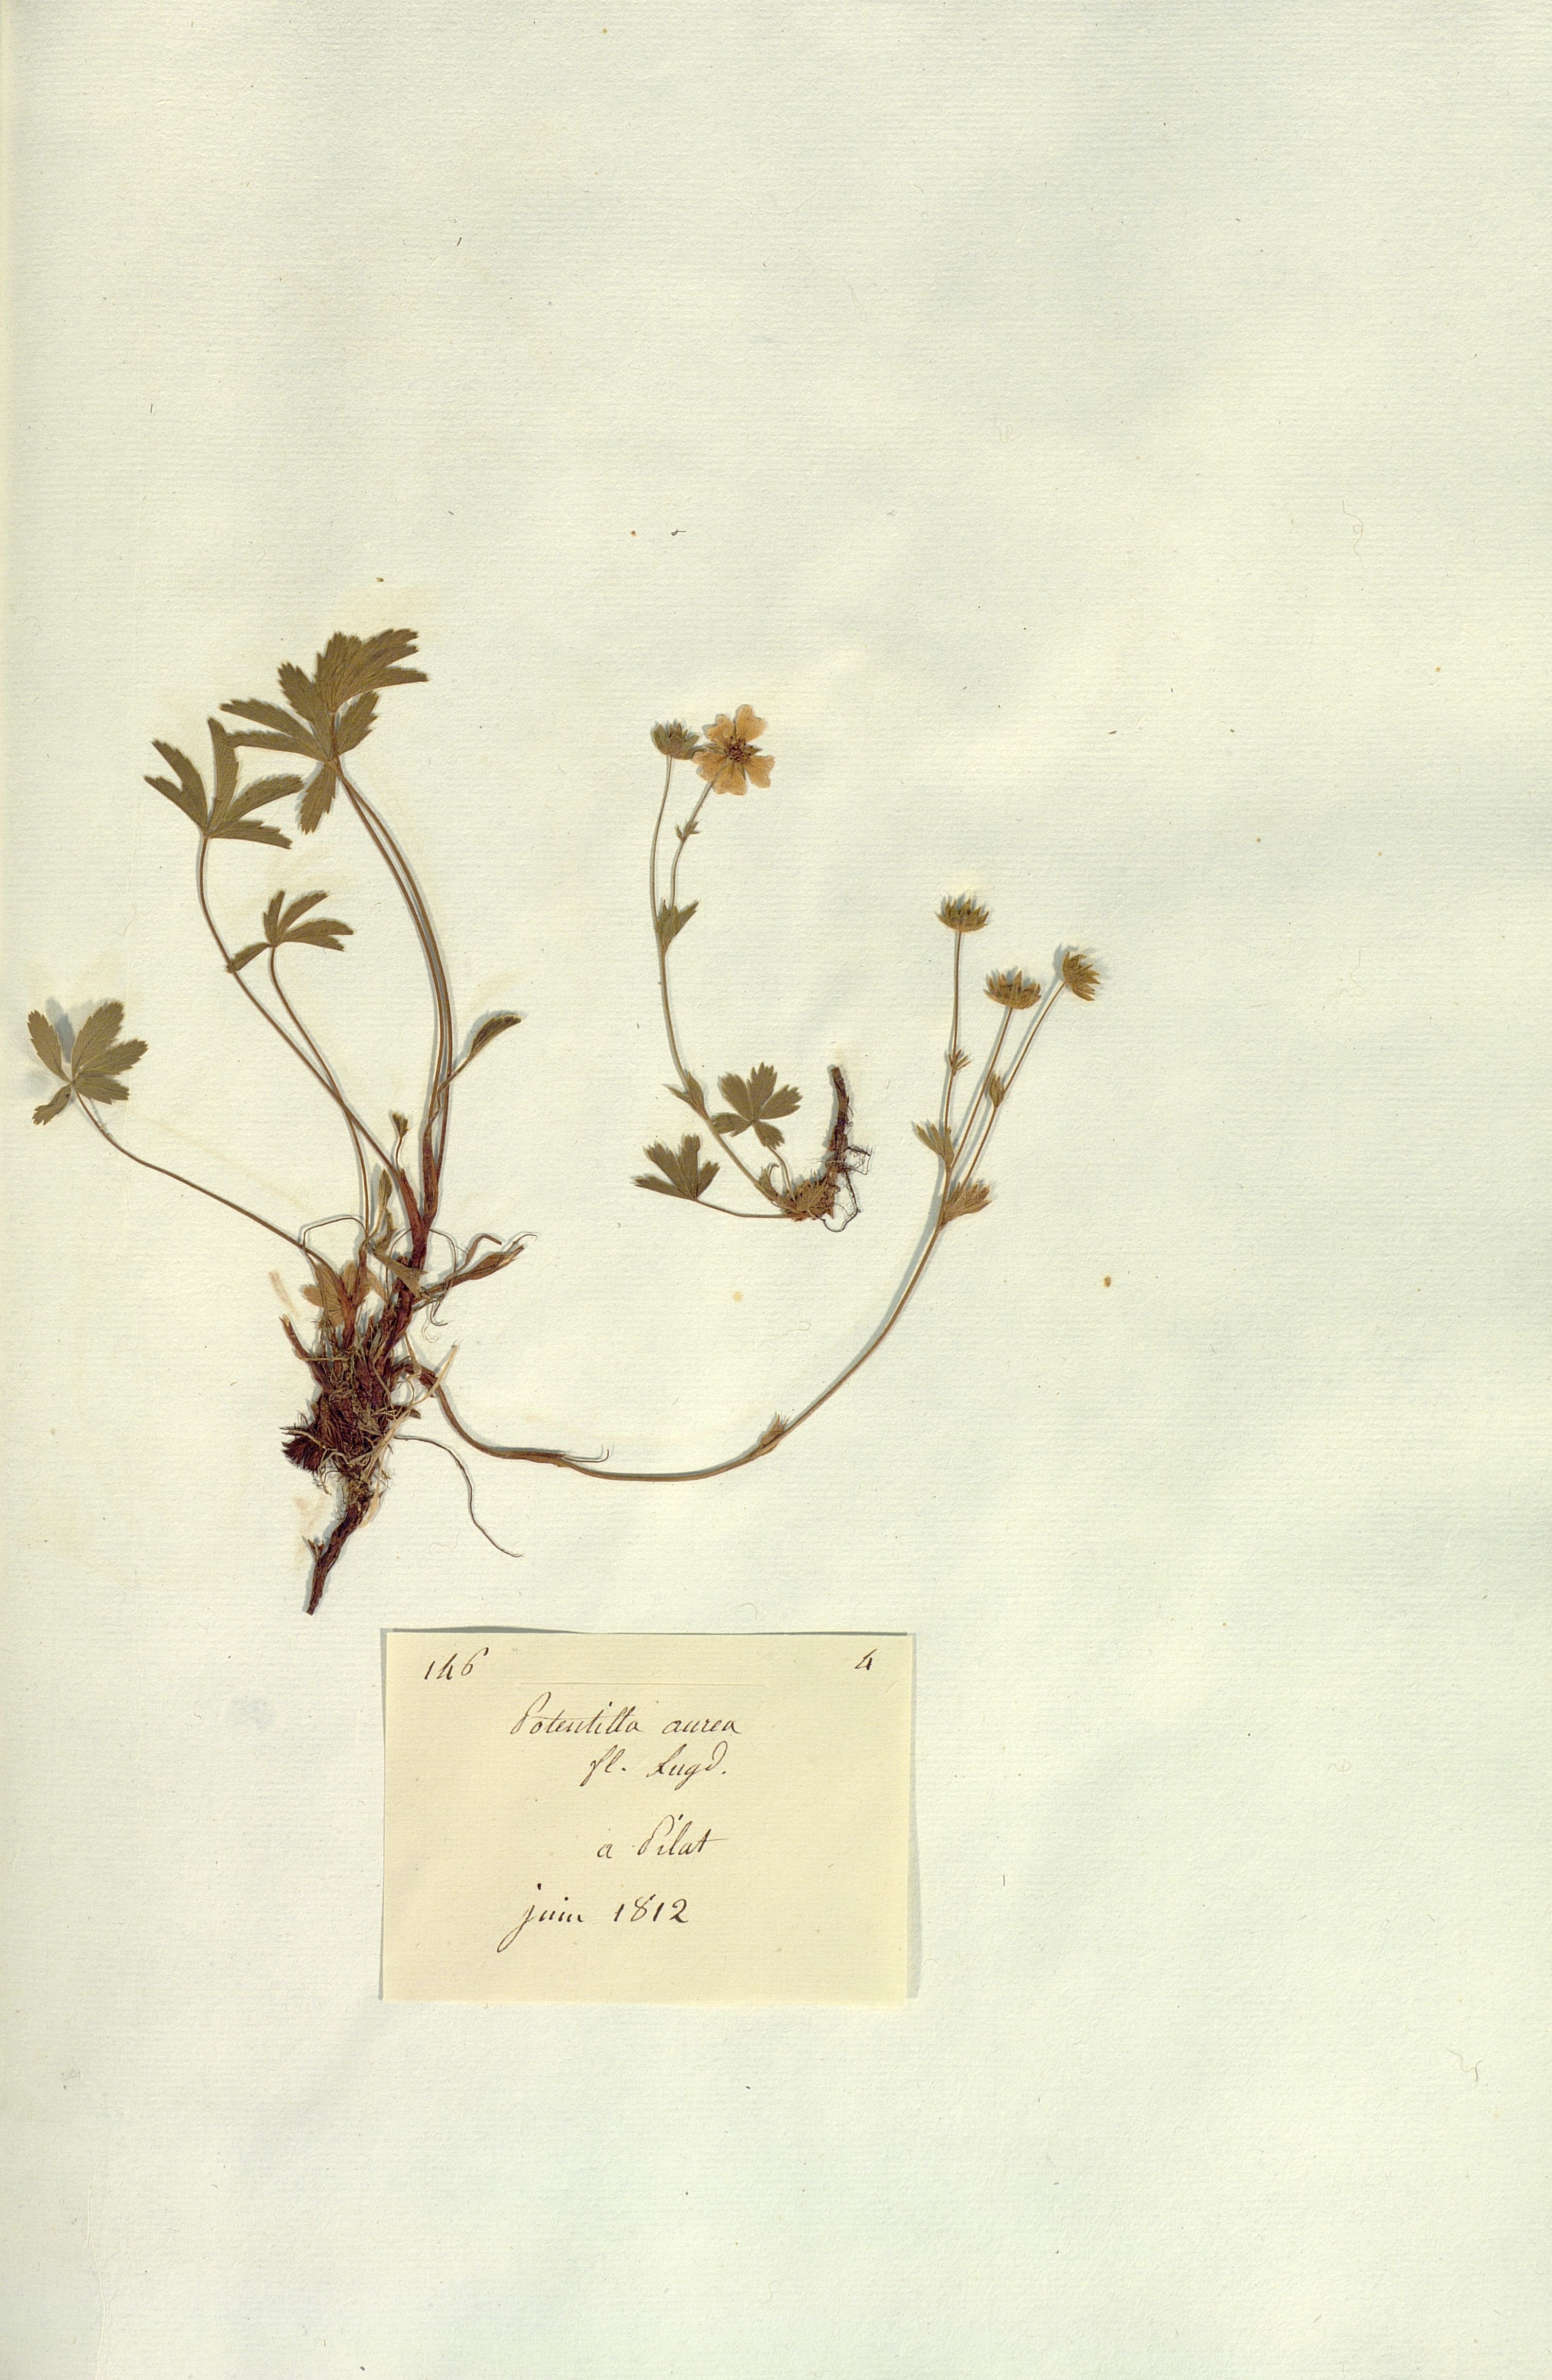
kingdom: Plantae
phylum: Tracheophyta
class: Magnoliopsida
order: Rosales
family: Rosaceae
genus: Potentilla
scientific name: Potentilla aurea
